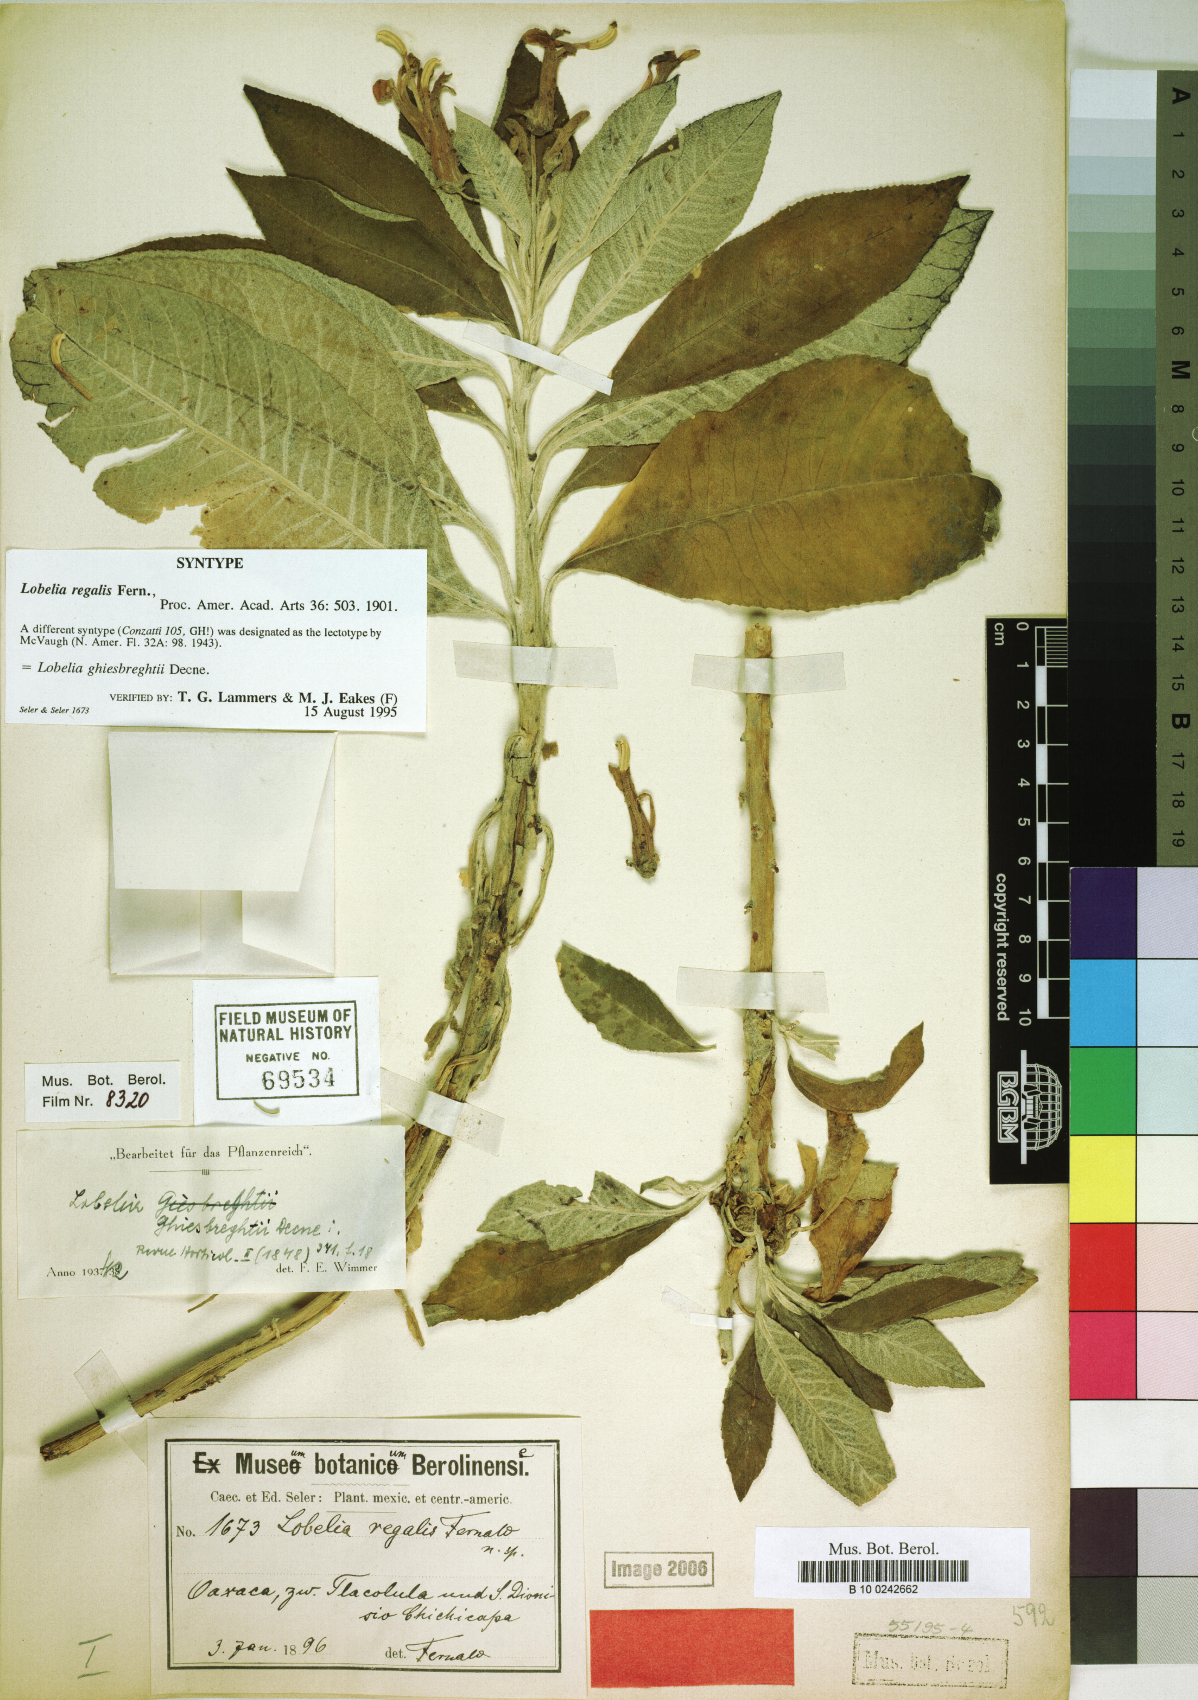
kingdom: Plantae
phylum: Tracheophyta
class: Magnoliopsida
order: Asterales
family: Campanulaceae
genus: Lobelia
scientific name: Lobelia ghiesbreghtii
